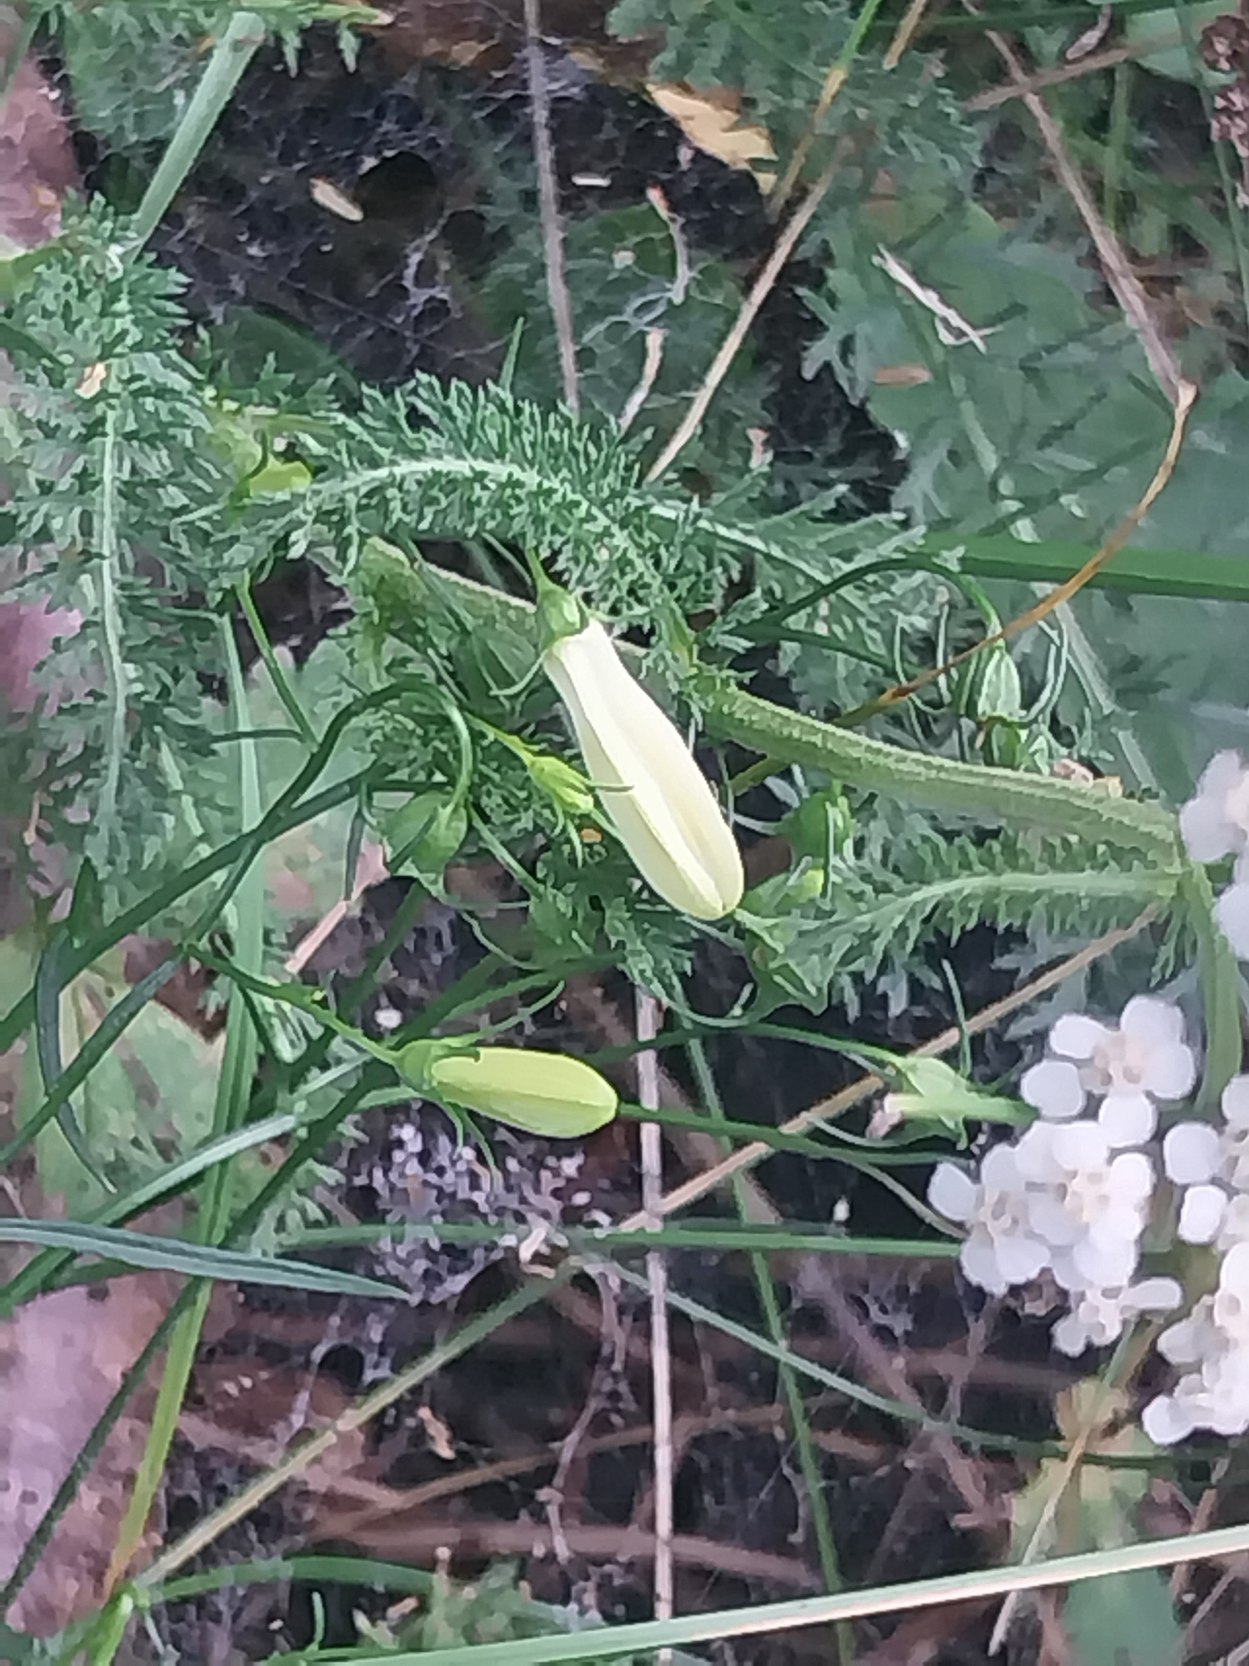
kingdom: Plantae
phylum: Tracheophyta
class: Magnoliopsida
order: Asterales
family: Campanulaceae
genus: Campanula
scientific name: Campanula rotundifolia
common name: Liden klokke
